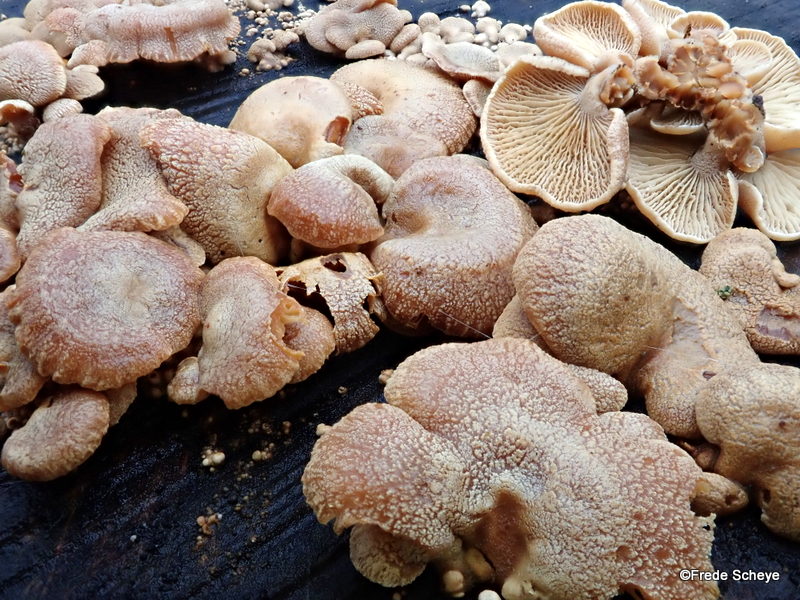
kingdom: Fungi
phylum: Basidiomycota
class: Agaricomycetes
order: Agaricales
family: Mycenaceae
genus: Panellus
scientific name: Panellus stipticus
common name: kliddet epaulethat
